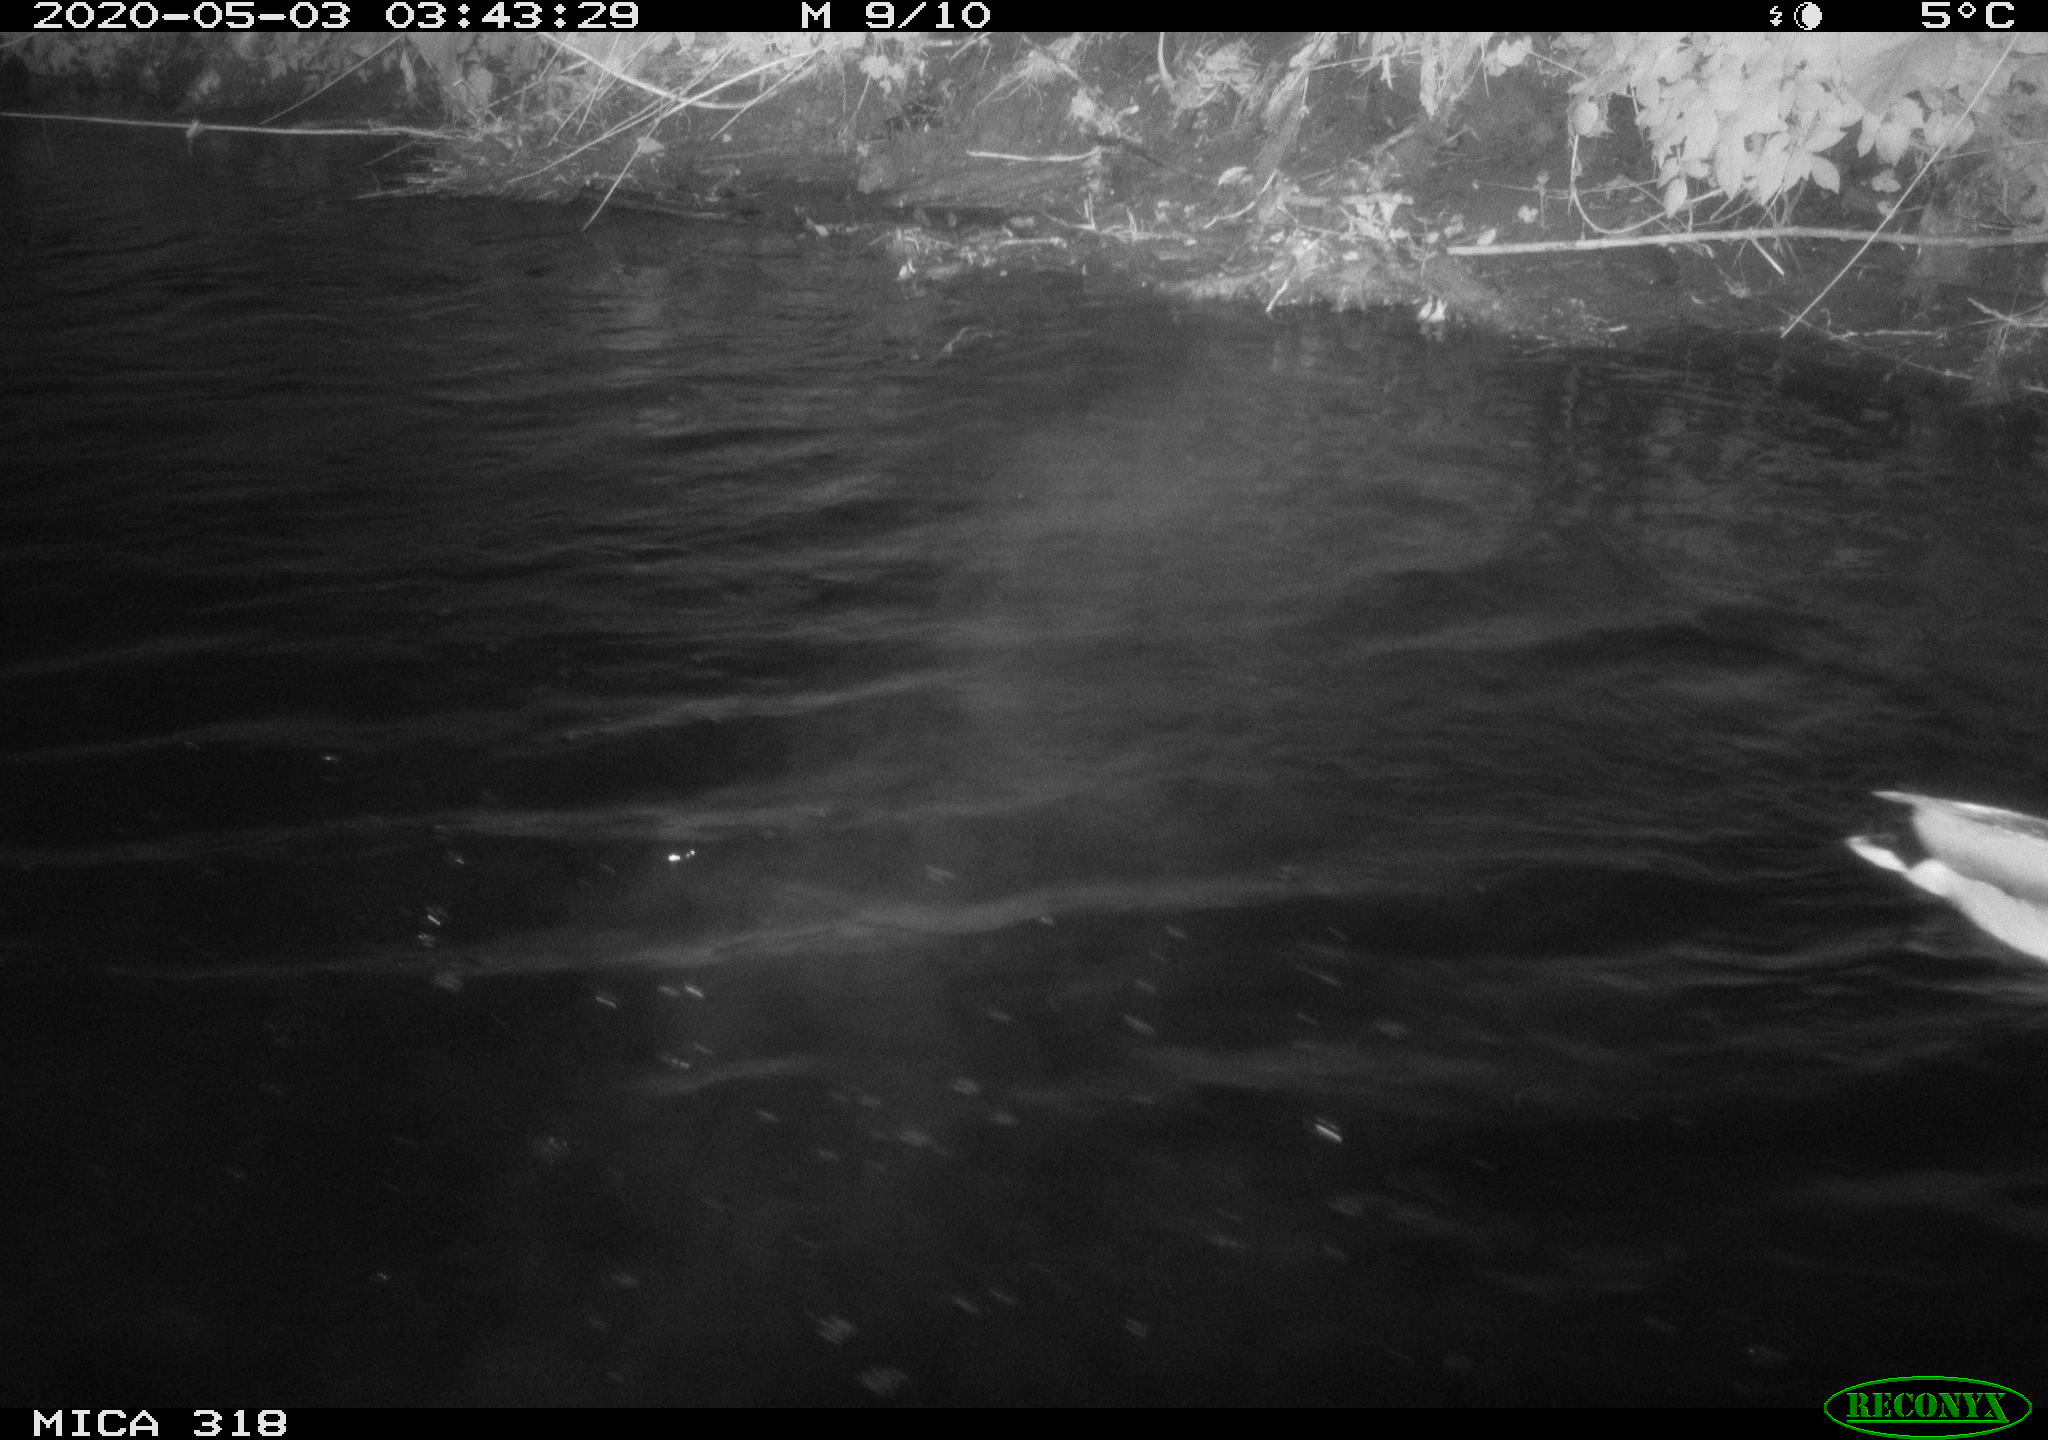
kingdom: Animalia
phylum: Chordata
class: Aves
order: Anseriformes
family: Anatidae
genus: Anas
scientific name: Anas platyrhynchos
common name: Mallard
